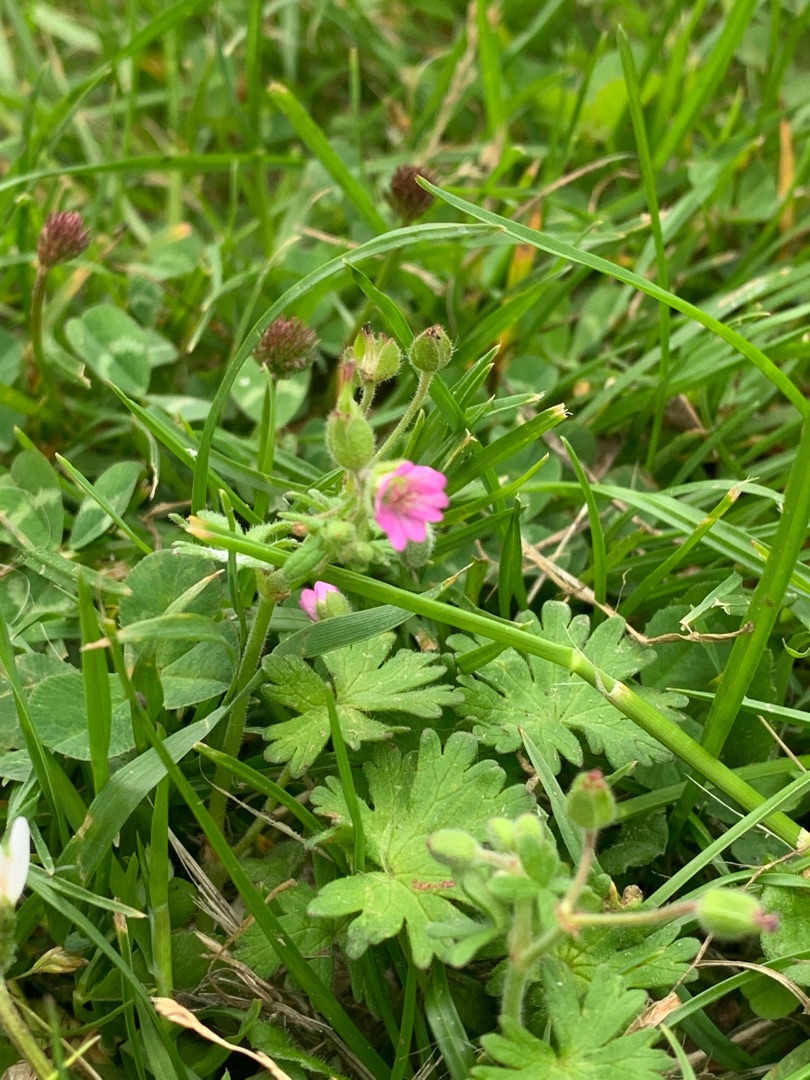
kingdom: Plantae
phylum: Tracheophyta
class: Magnoliopsida
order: Geraniales
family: Geraniaceae
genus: Geranium
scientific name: Geranium molle
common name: Blød storkenæb
